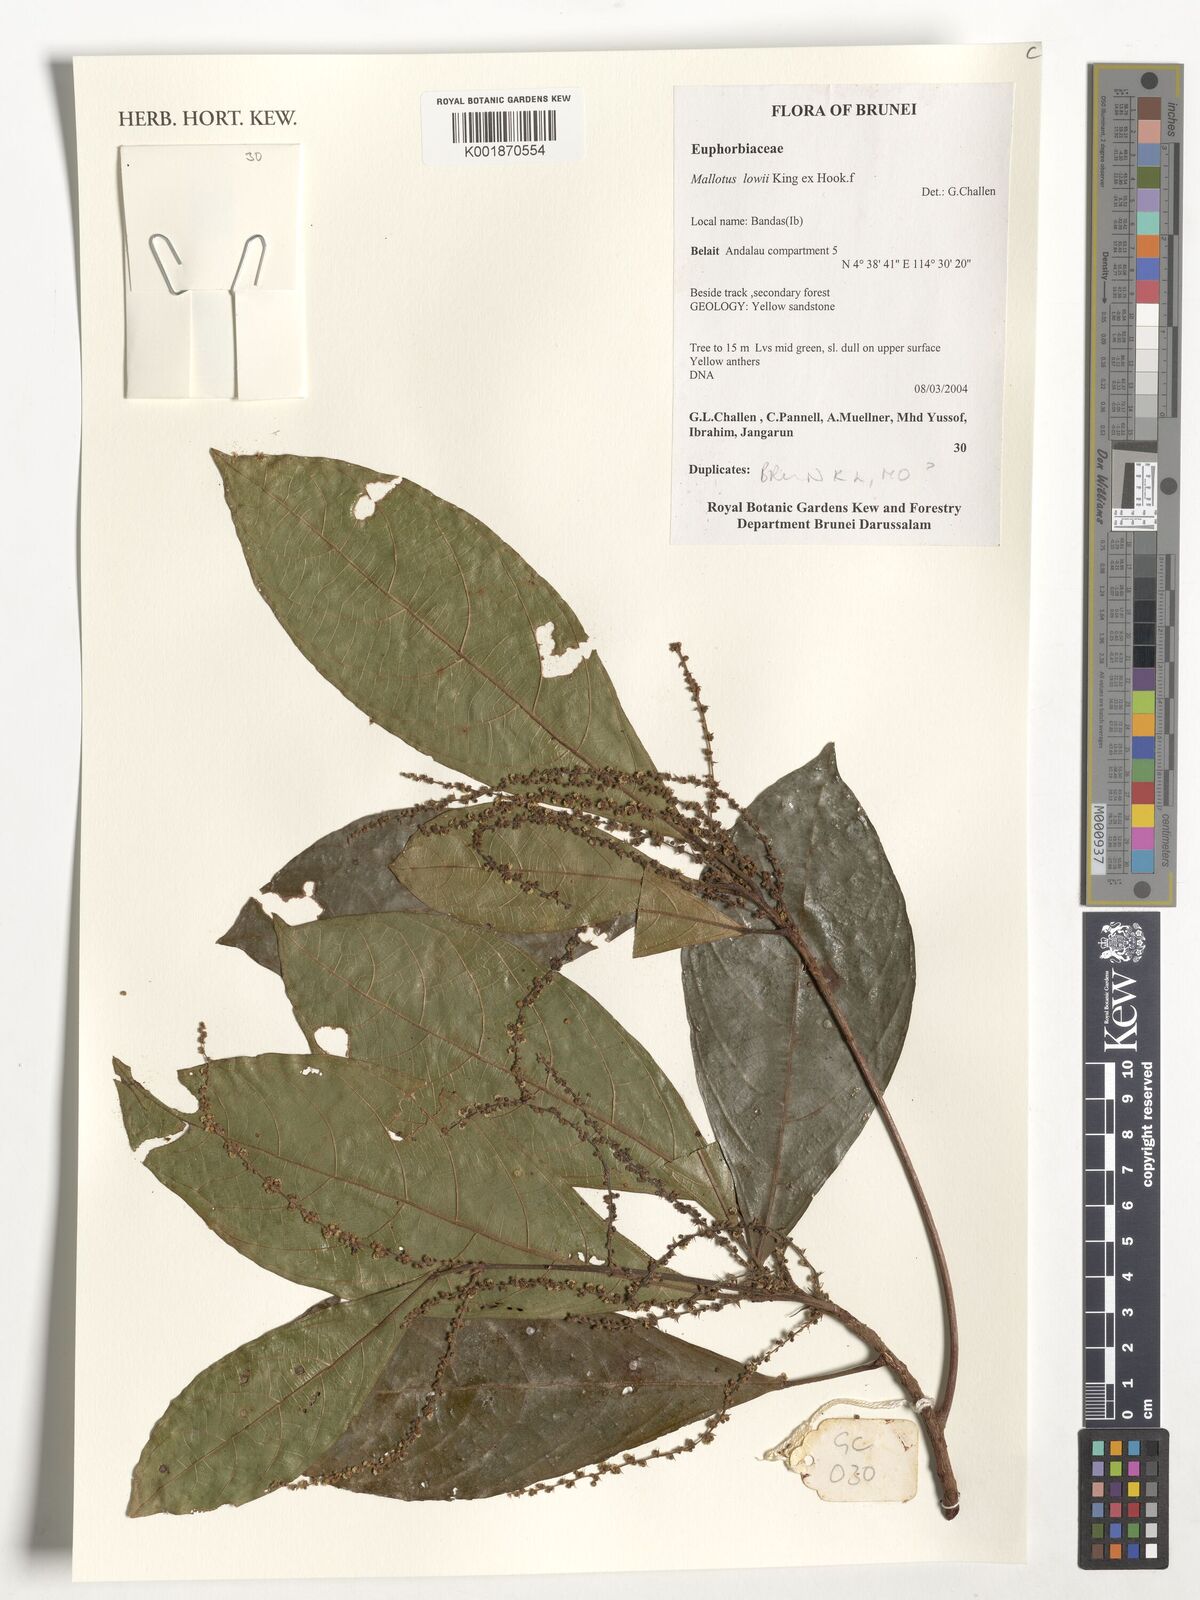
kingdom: Plantae
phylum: Tracheophyta
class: Magnoliopsida
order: Malpighiales
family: Euphorbiaceae
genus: Mallotus
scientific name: Mallotus
